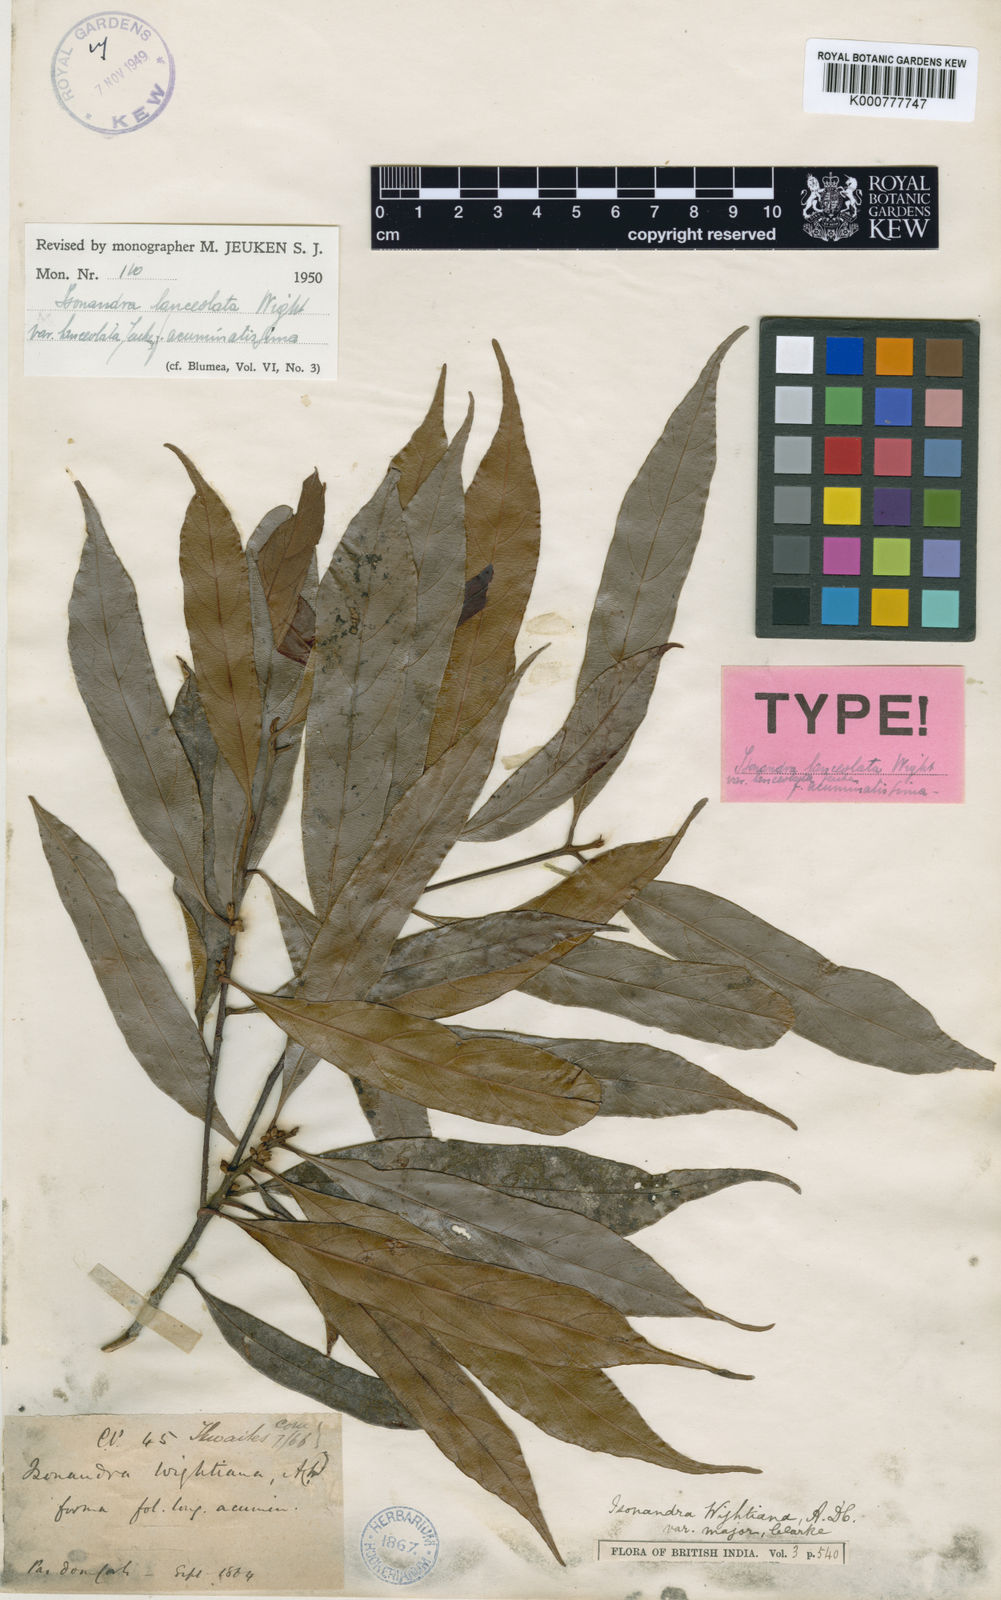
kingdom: Plantae
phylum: Tracheophyta
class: Magnoliopsida
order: Ericales
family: Sapotaceae
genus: Isonandra
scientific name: Isonandra lanceolata
